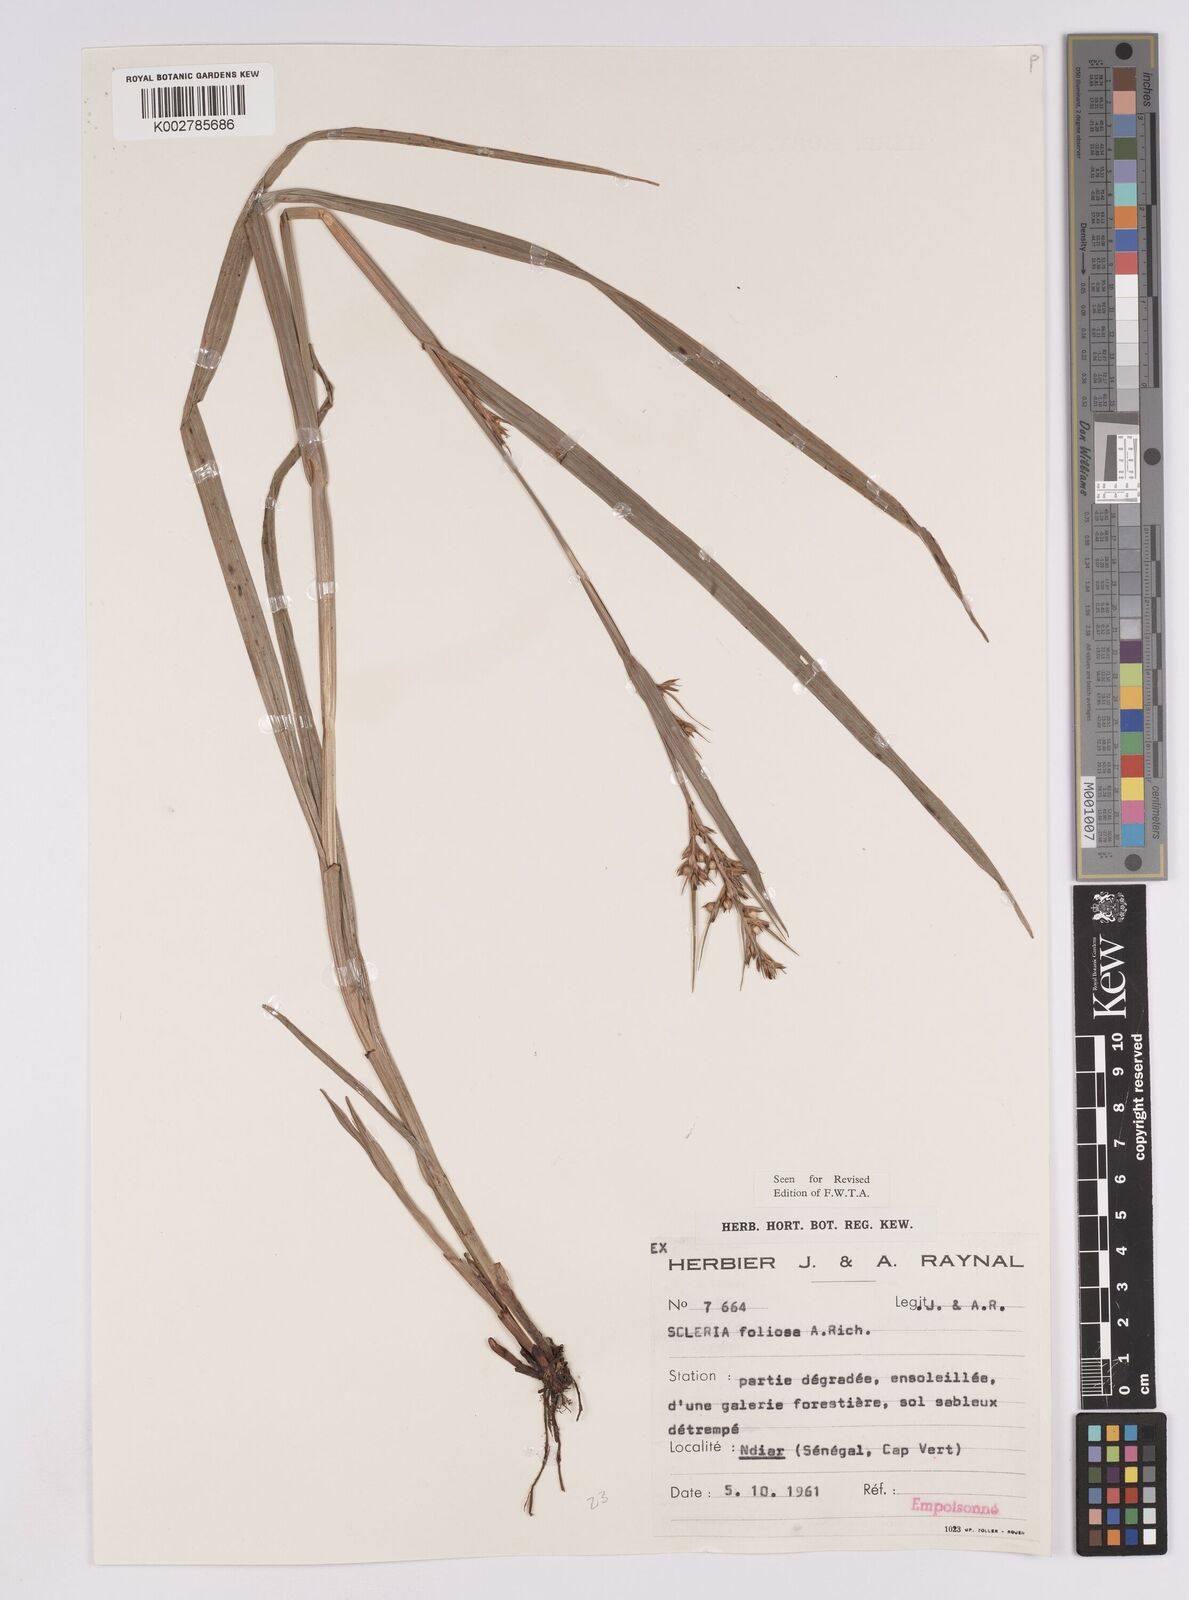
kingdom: Plantae
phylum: Tracheophyta
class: Liliopsida
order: Poales
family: Cyperaceae
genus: Scleria
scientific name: Scleria foliosa
